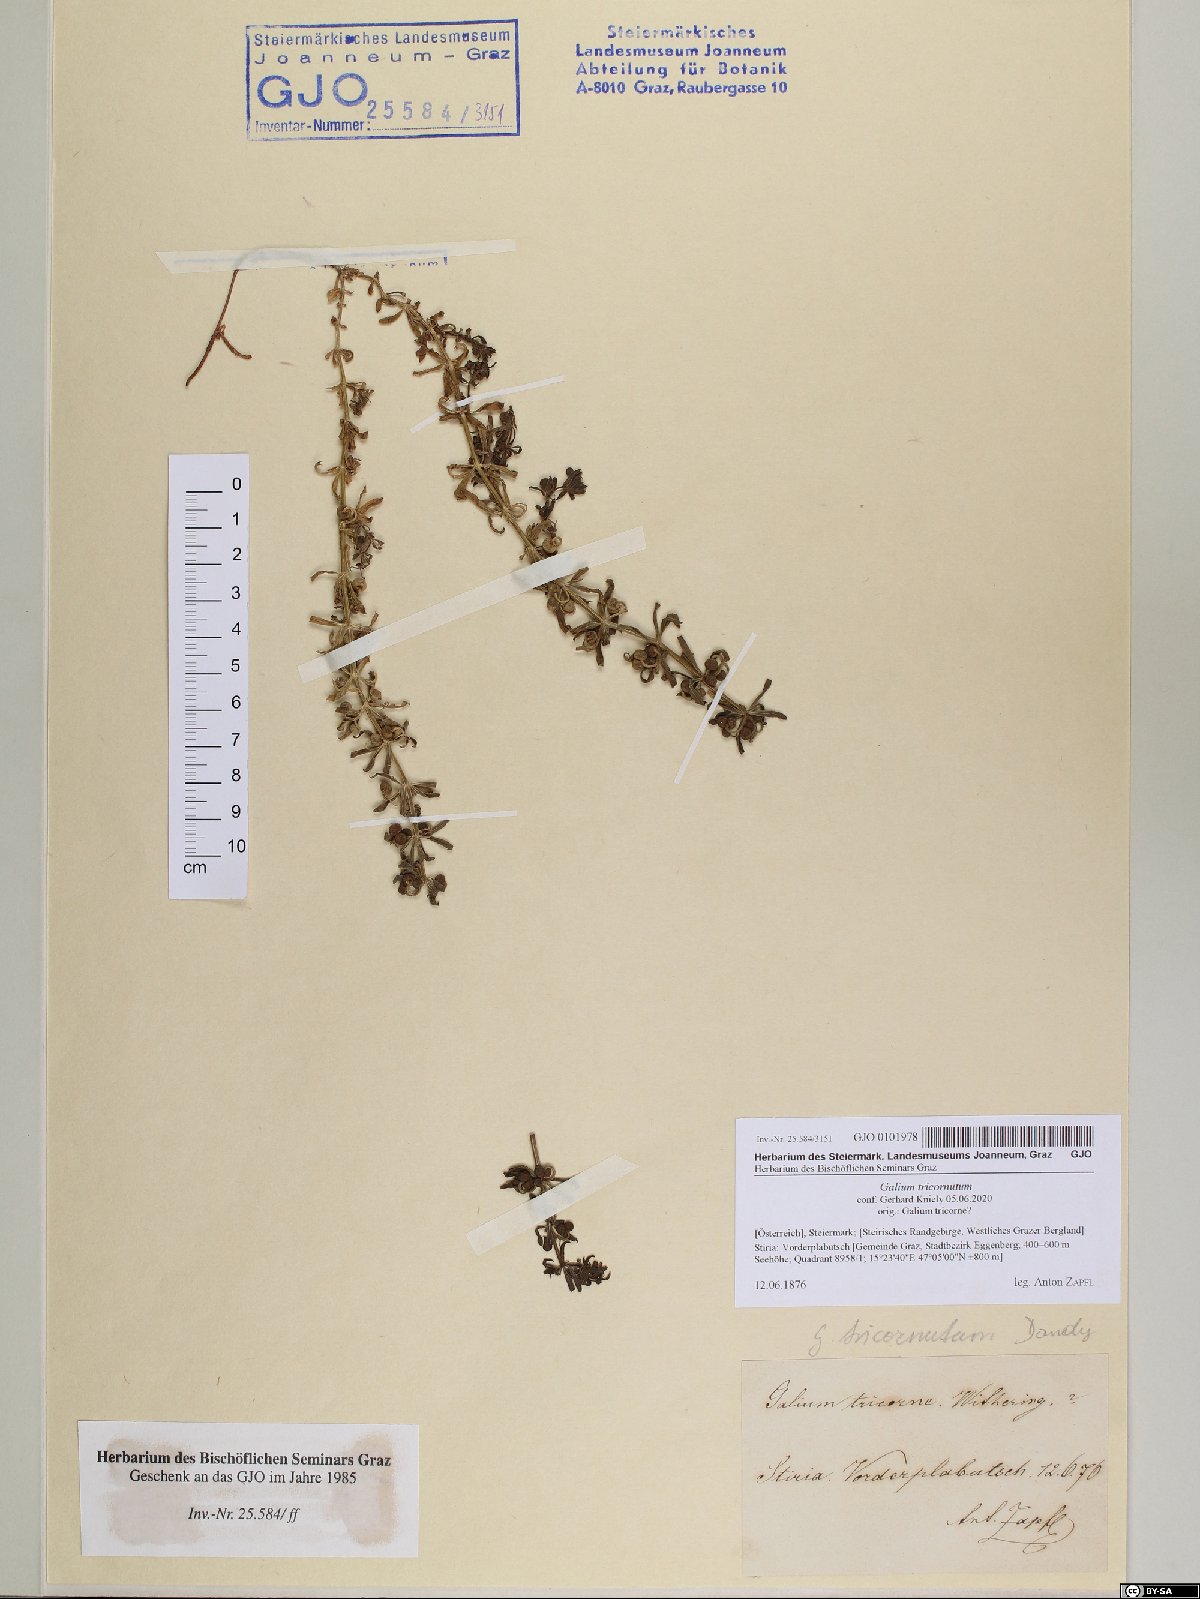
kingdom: Plantae
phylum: Tracheophyta
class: Magnoliopsida
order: Gentianales
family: Rubiaceae
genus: Galium
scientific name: Galium tricornutum
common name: Corn cleavers
